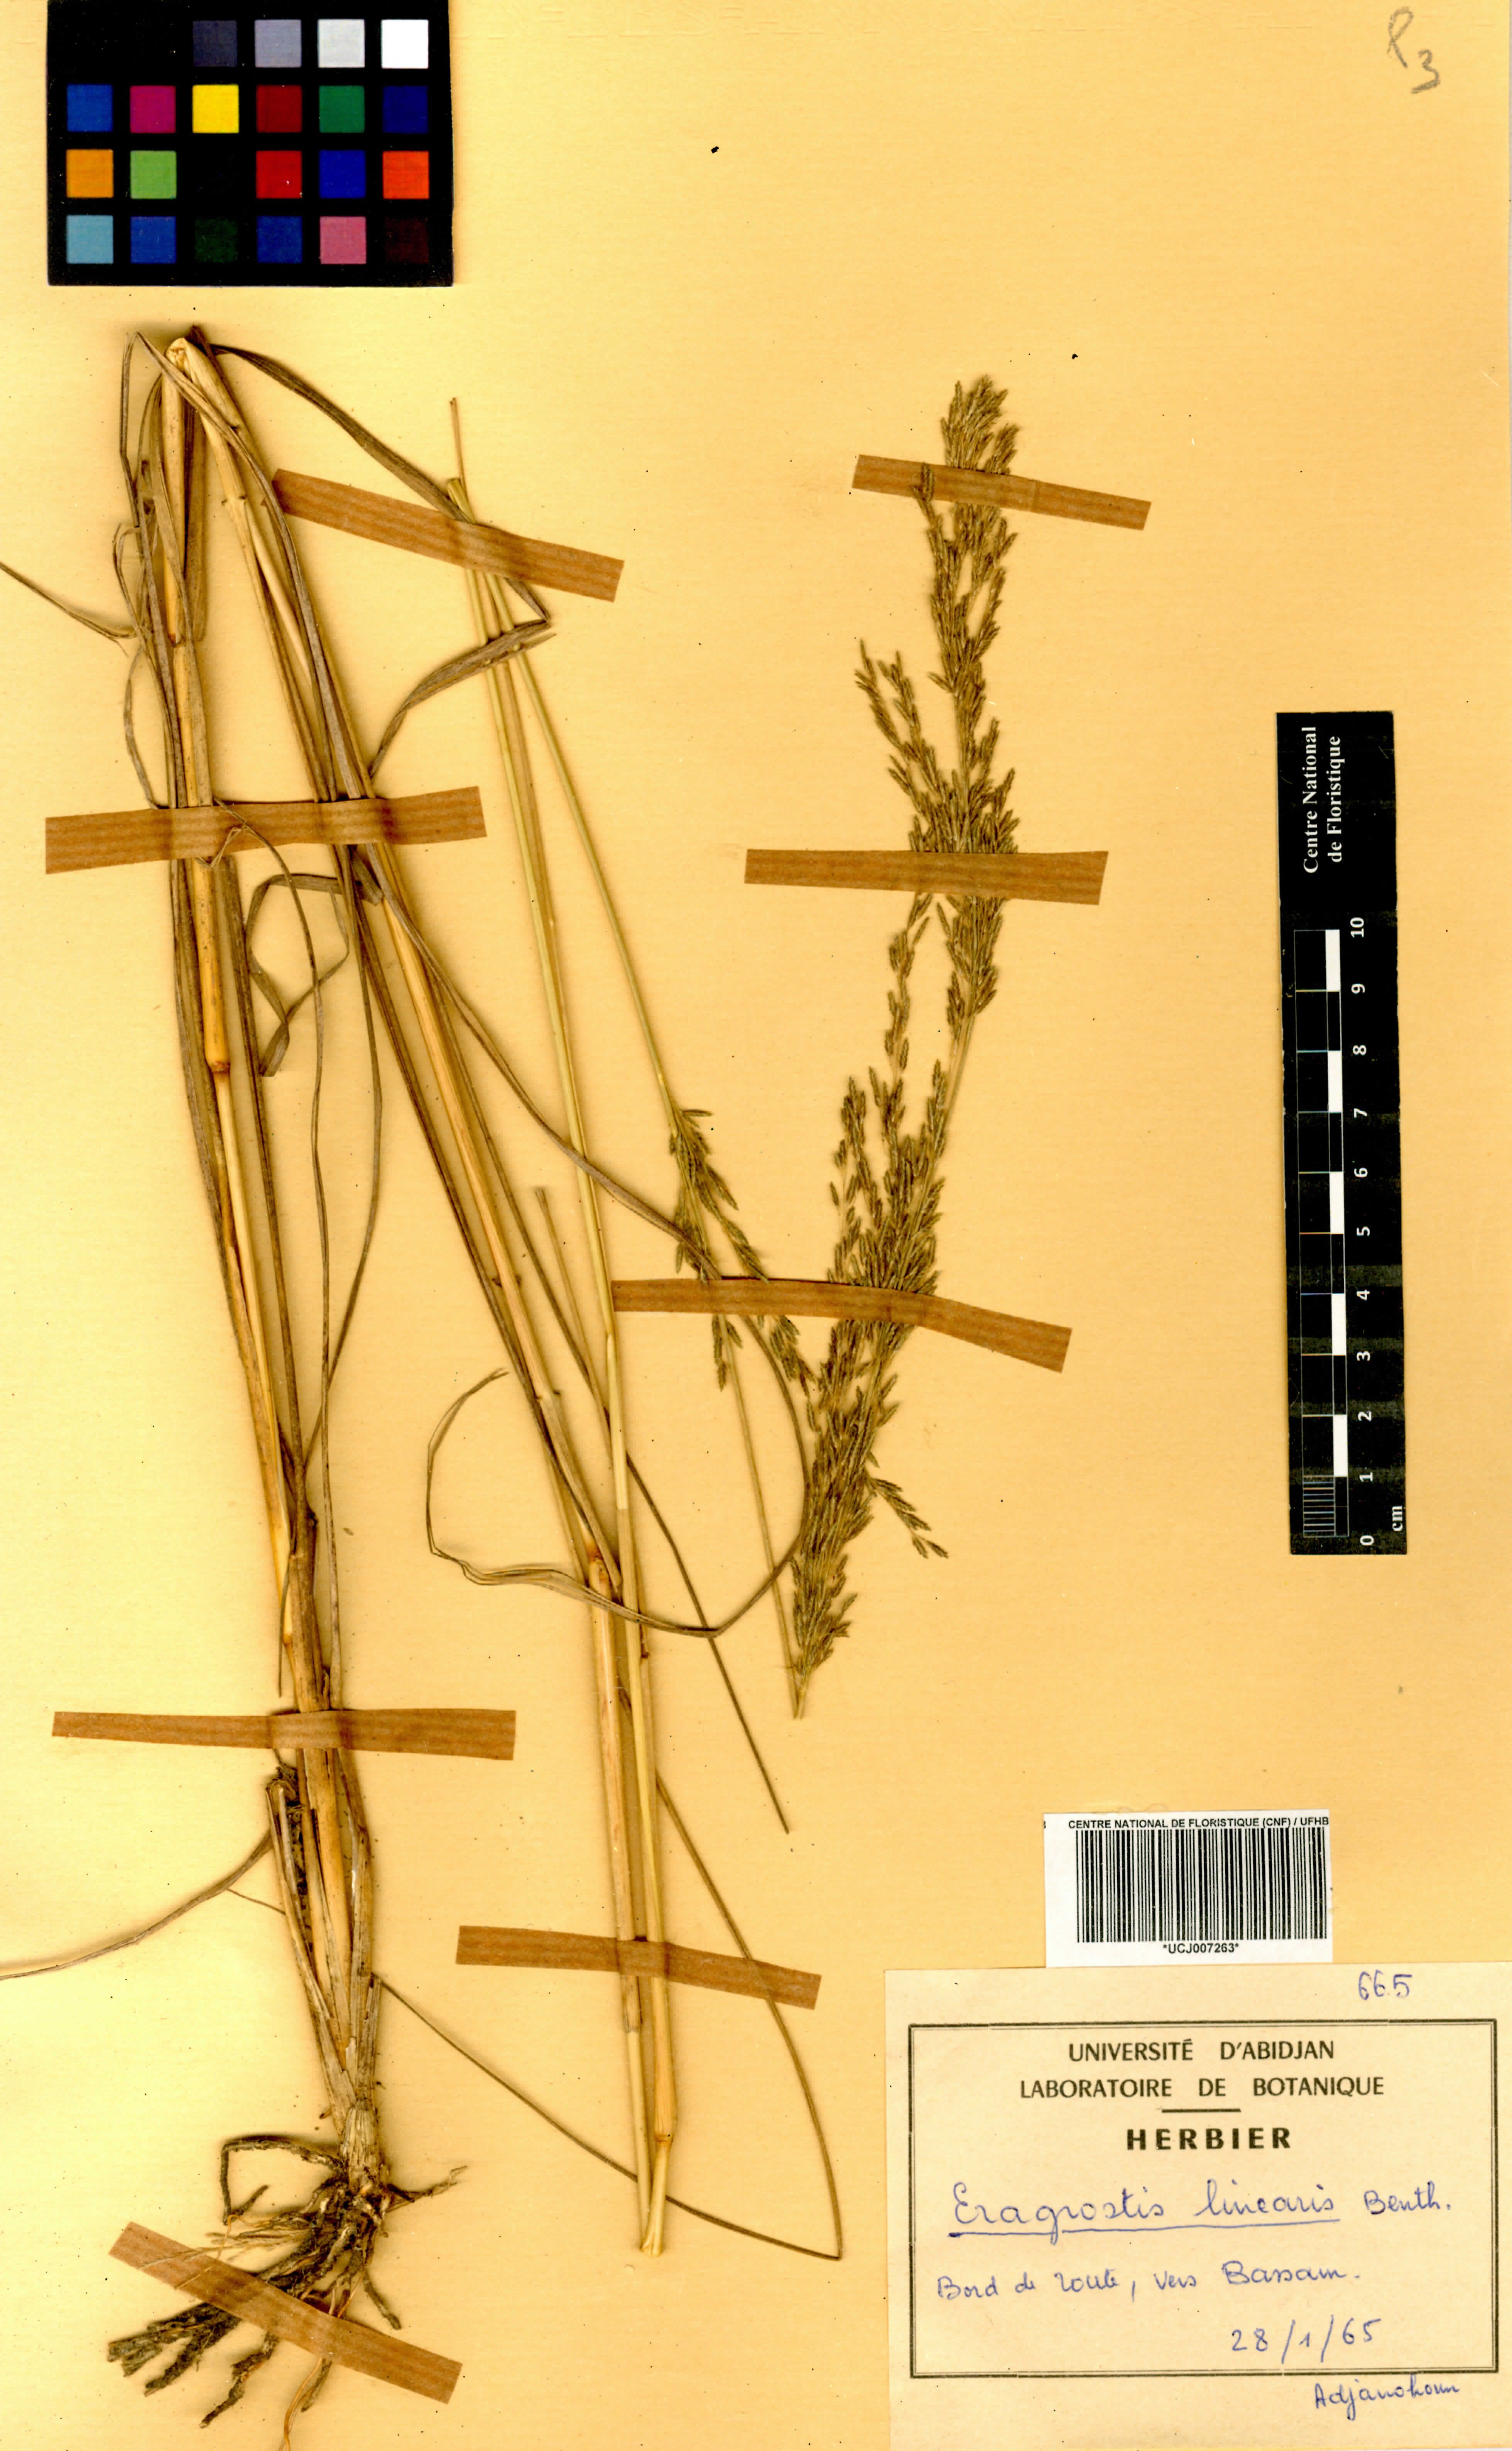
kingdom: Plantae
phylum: Tracheophyta
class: Liliopsida
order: Poales
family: Poaceae
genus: Eragrostis
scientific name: Eragrostis prolifera
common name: Dominican lovegrass
